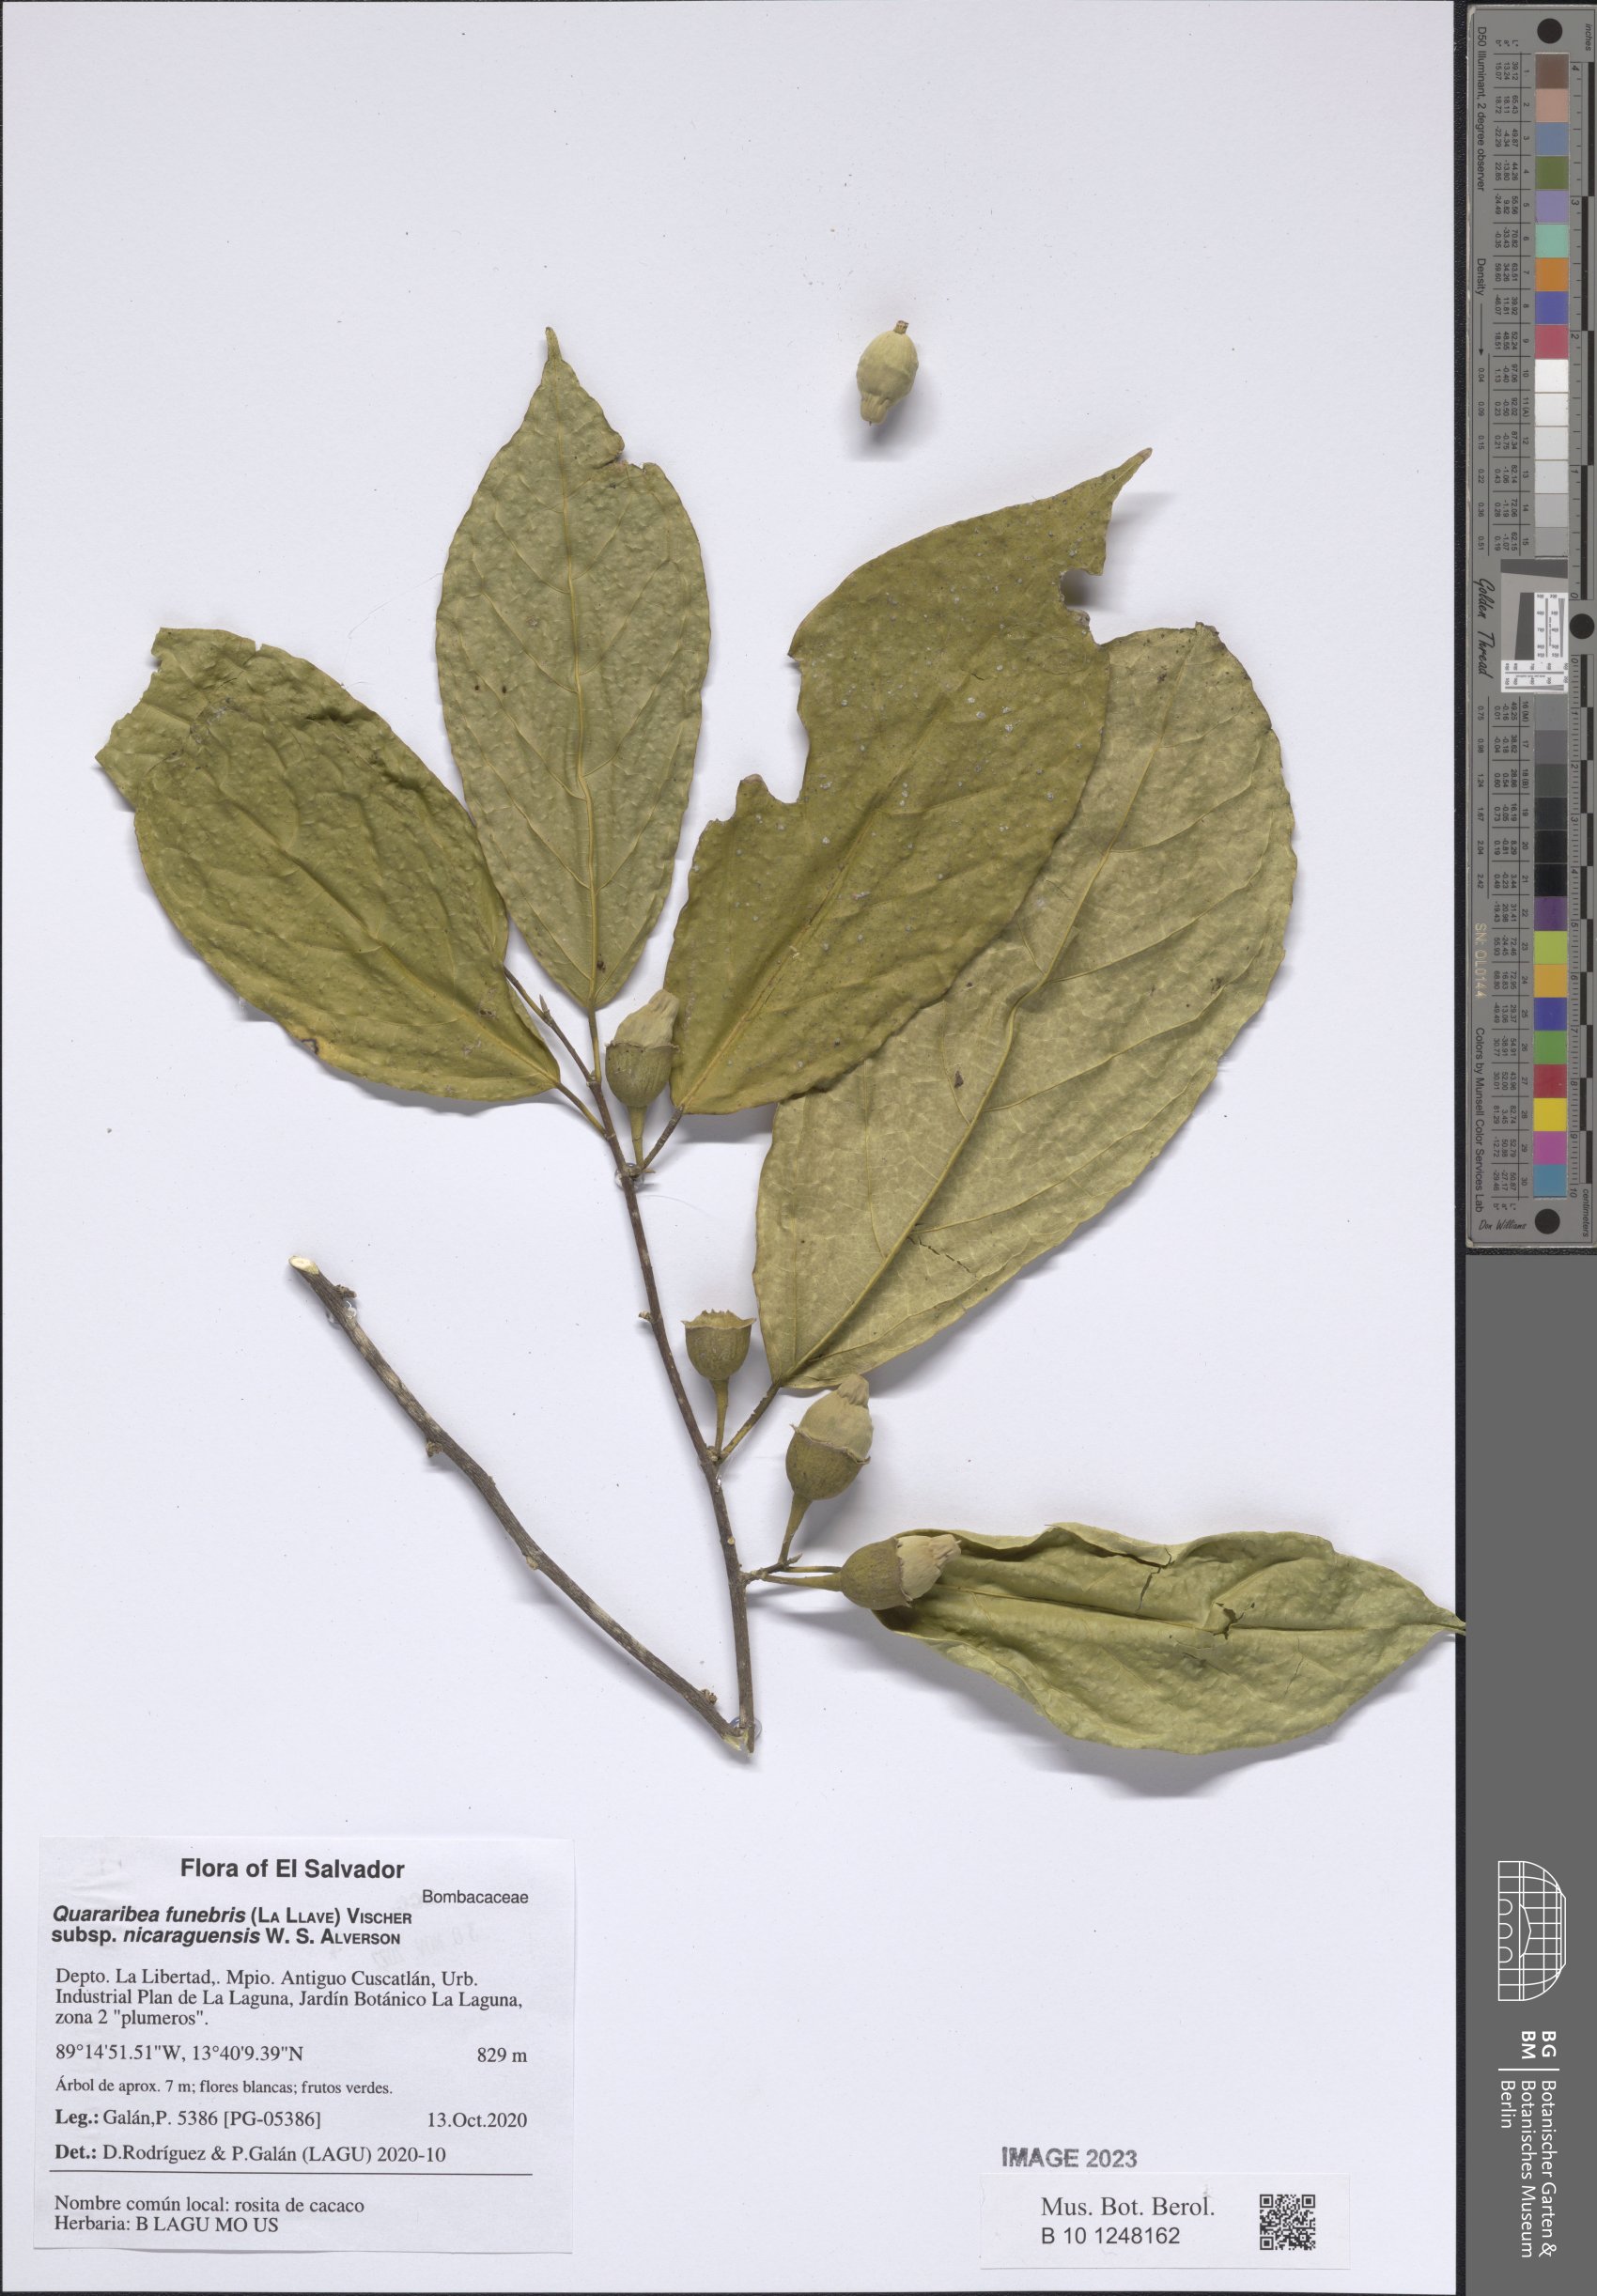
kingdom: Plantae
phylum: Tracheophyta
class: Magnoliopsida
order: Malvales
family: Malvaceae
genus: Quararibea
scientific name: Quararibea funebris
